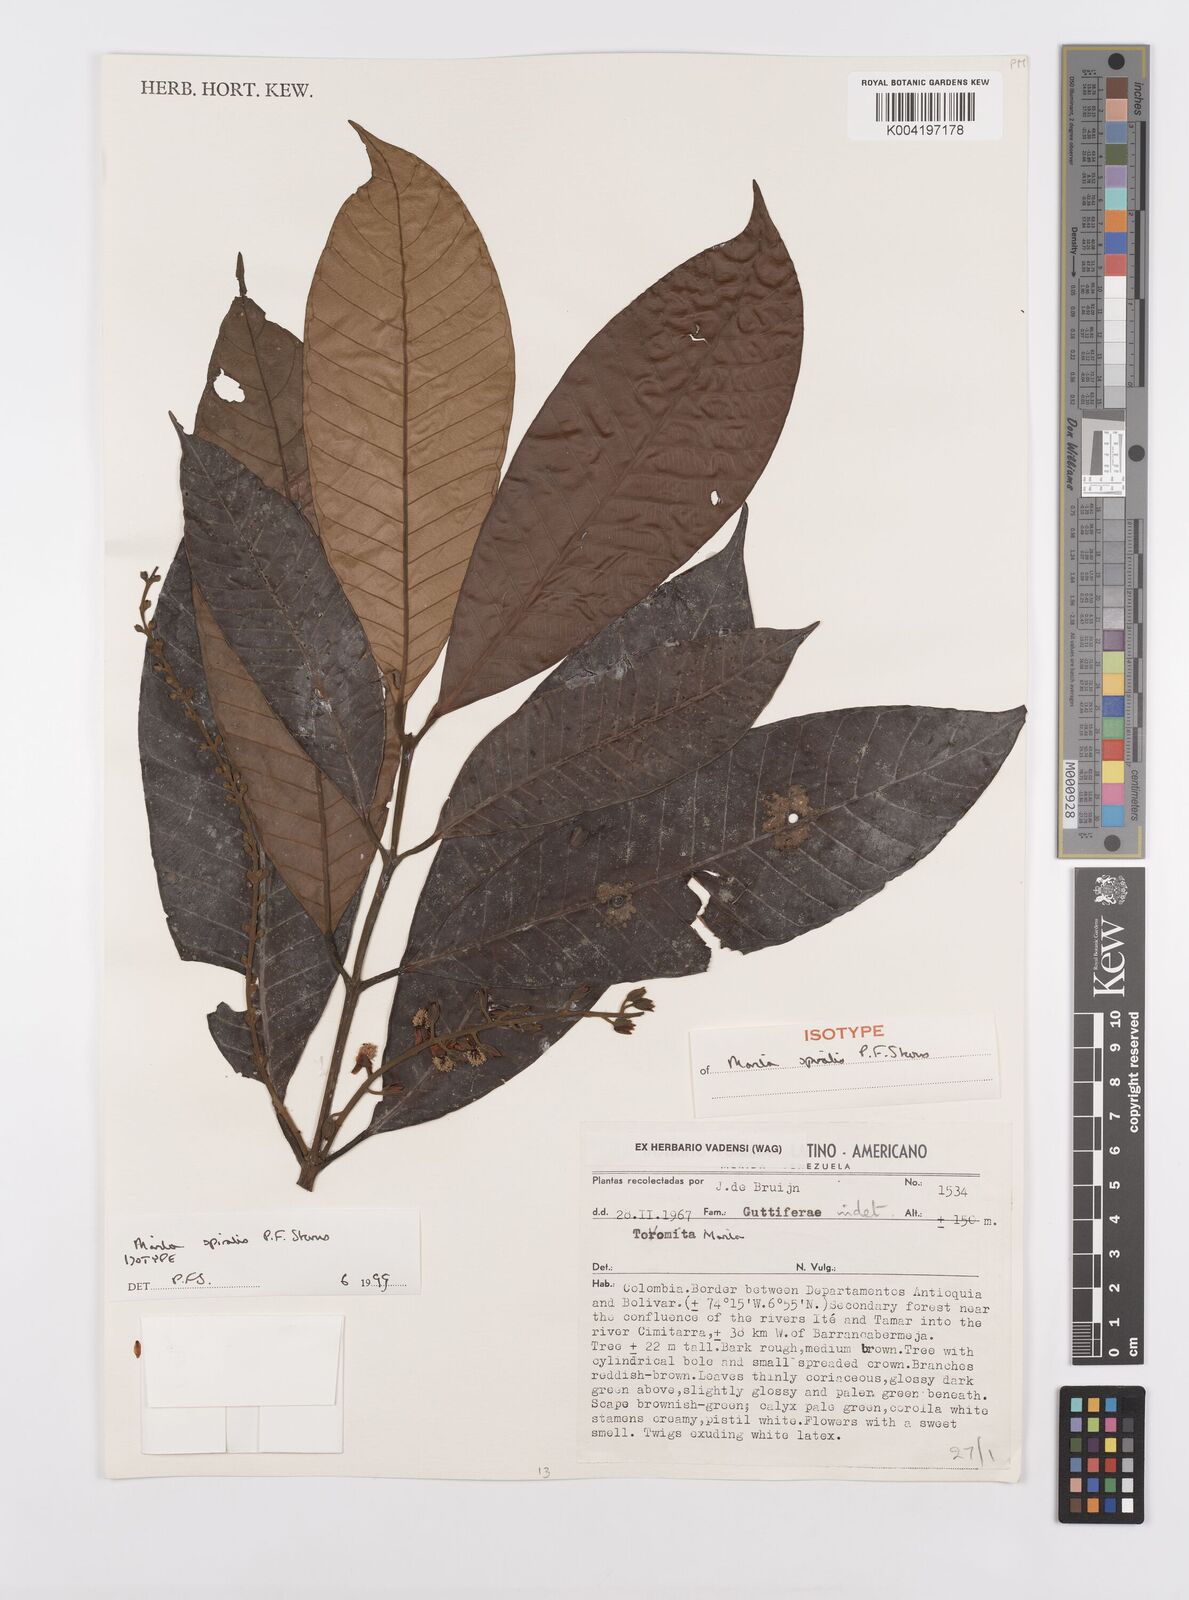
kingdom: Plantae
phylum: Tracheophyta
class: Magnoliopsida
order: Malpighiales
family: Calophyllaceae
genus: Marila
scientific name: Marila
